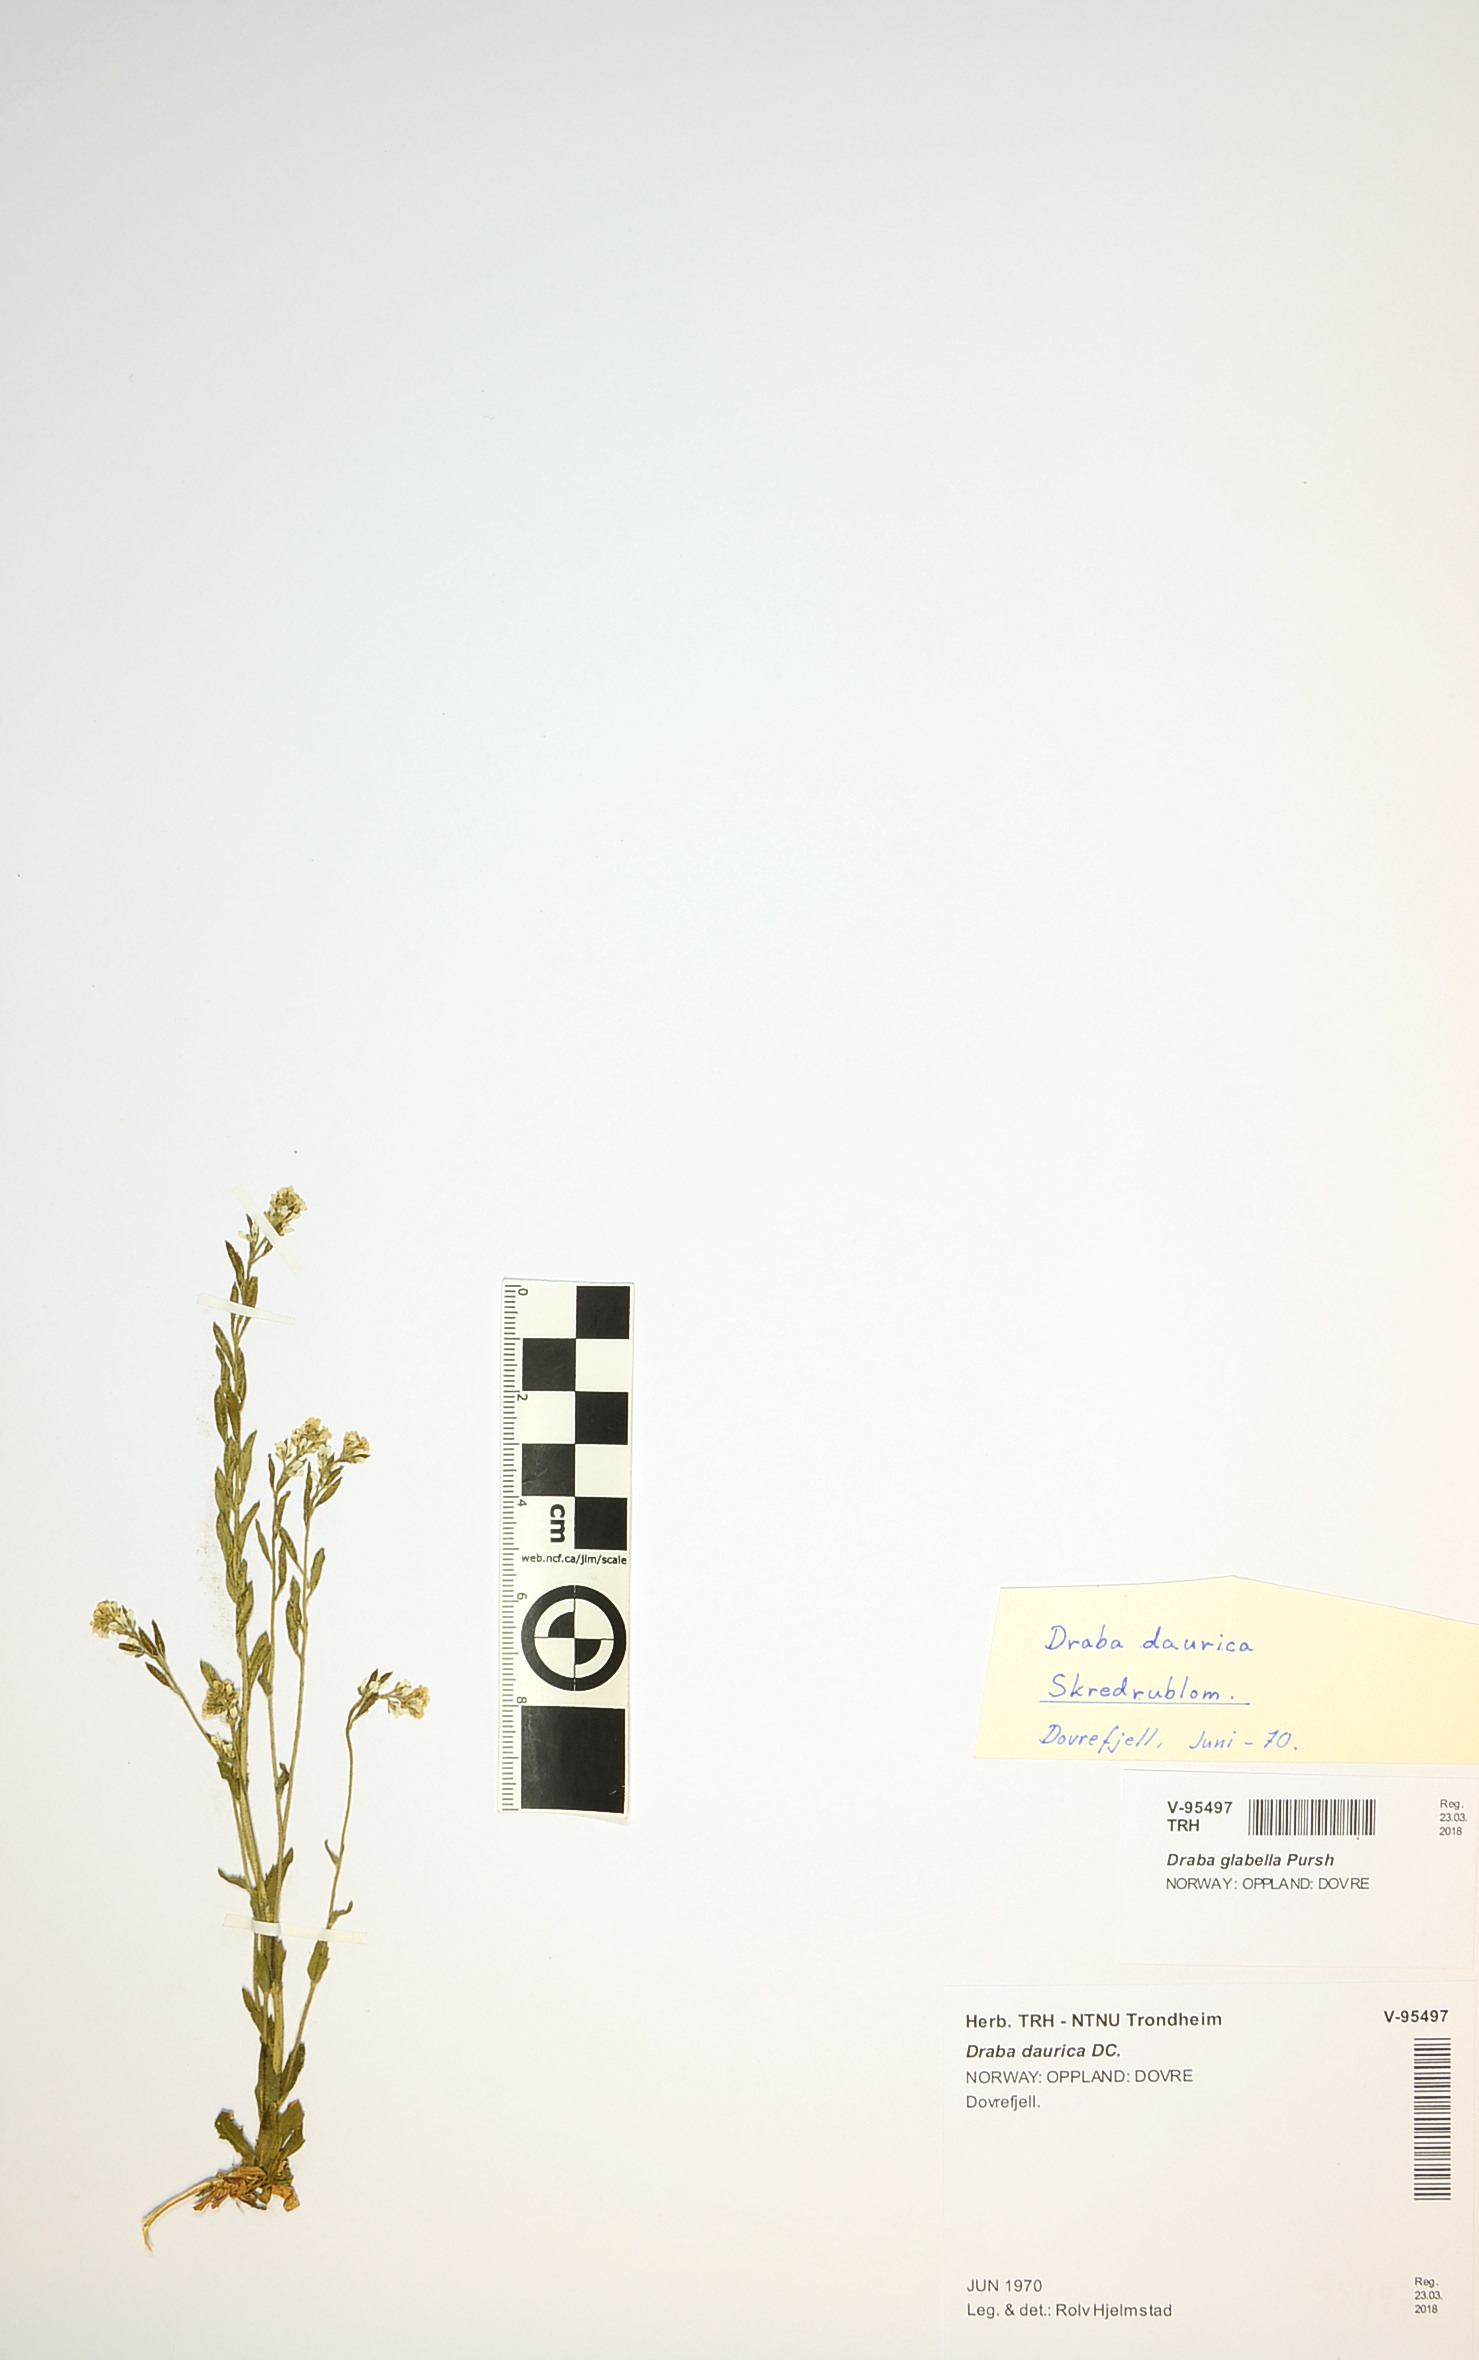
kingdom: Plantae
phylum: Tracheophyta
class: Magnoliopsida
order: Brassicales
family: Brassicaceae
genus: Draba
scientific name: Draba glabella
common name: Glaucous draba
